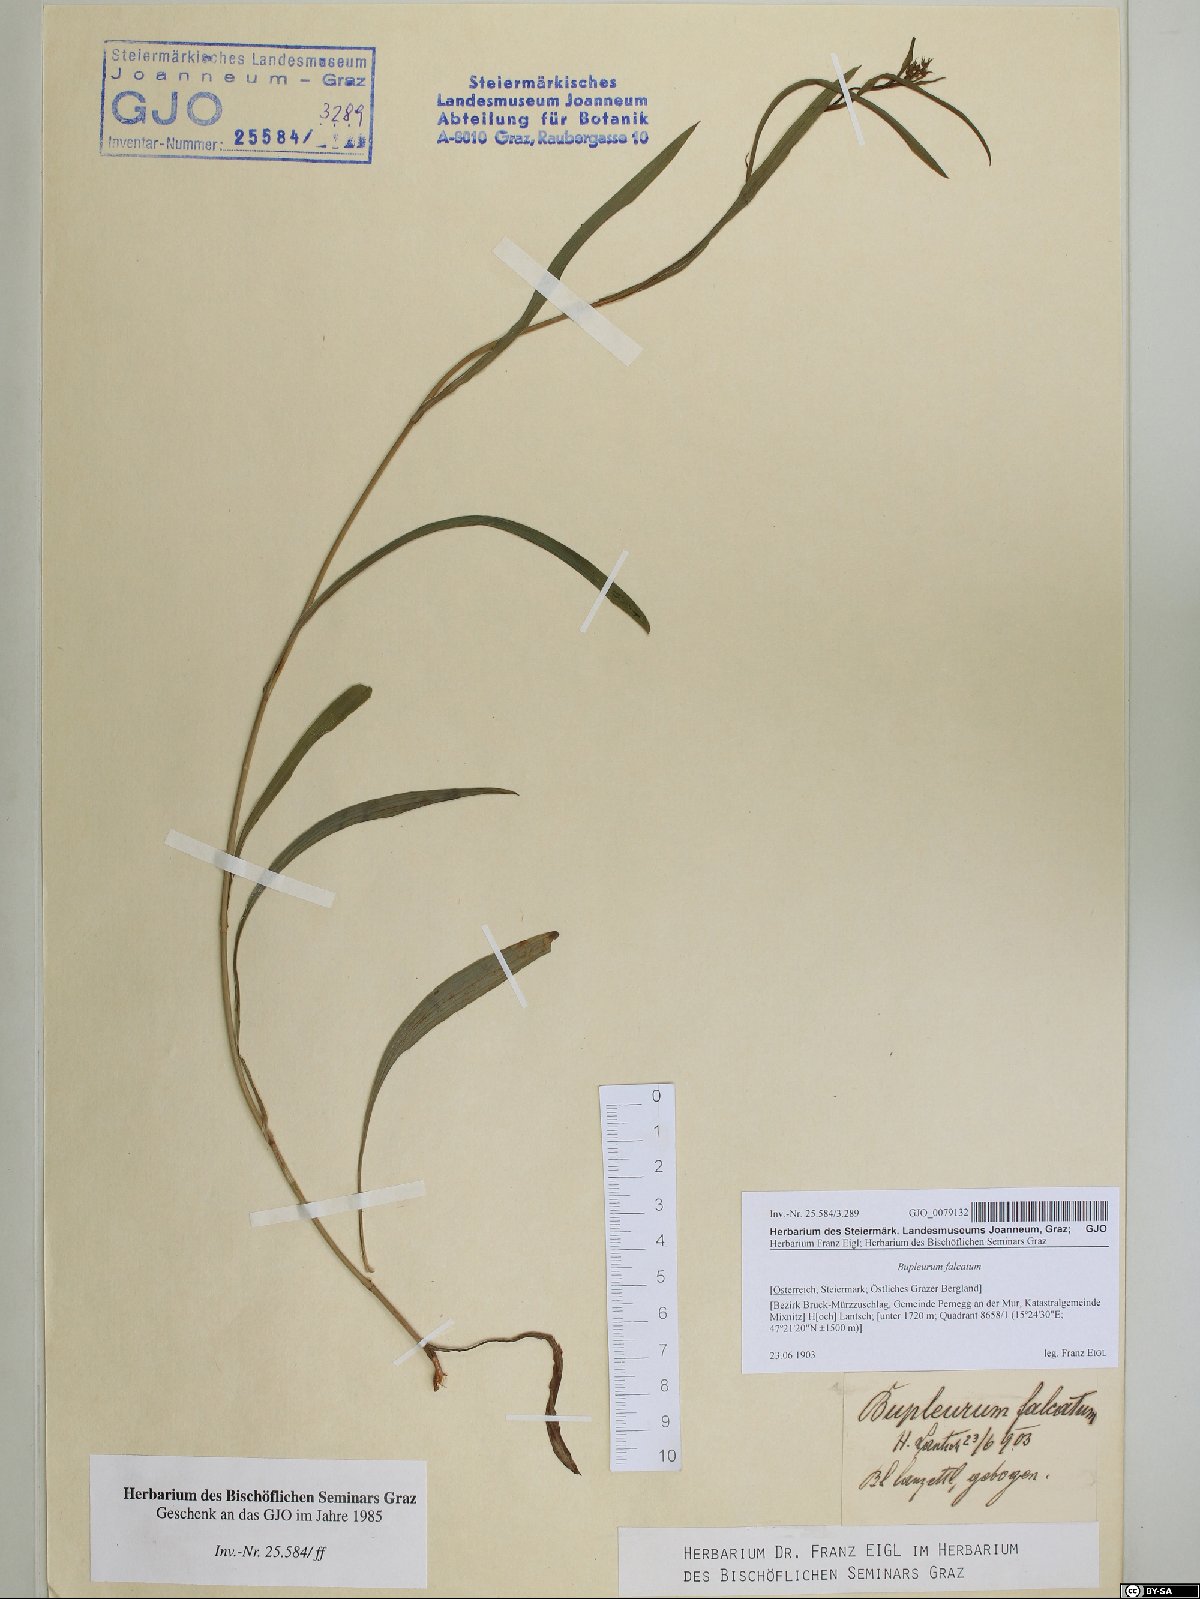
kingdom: Plantae
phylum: Tracheophyta
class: Magnoliopsida
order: Apiales
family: Apiaceae
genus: Bupleurum
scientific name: Bupleurum falcatum
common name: Sickle-leaved hare's-ear
